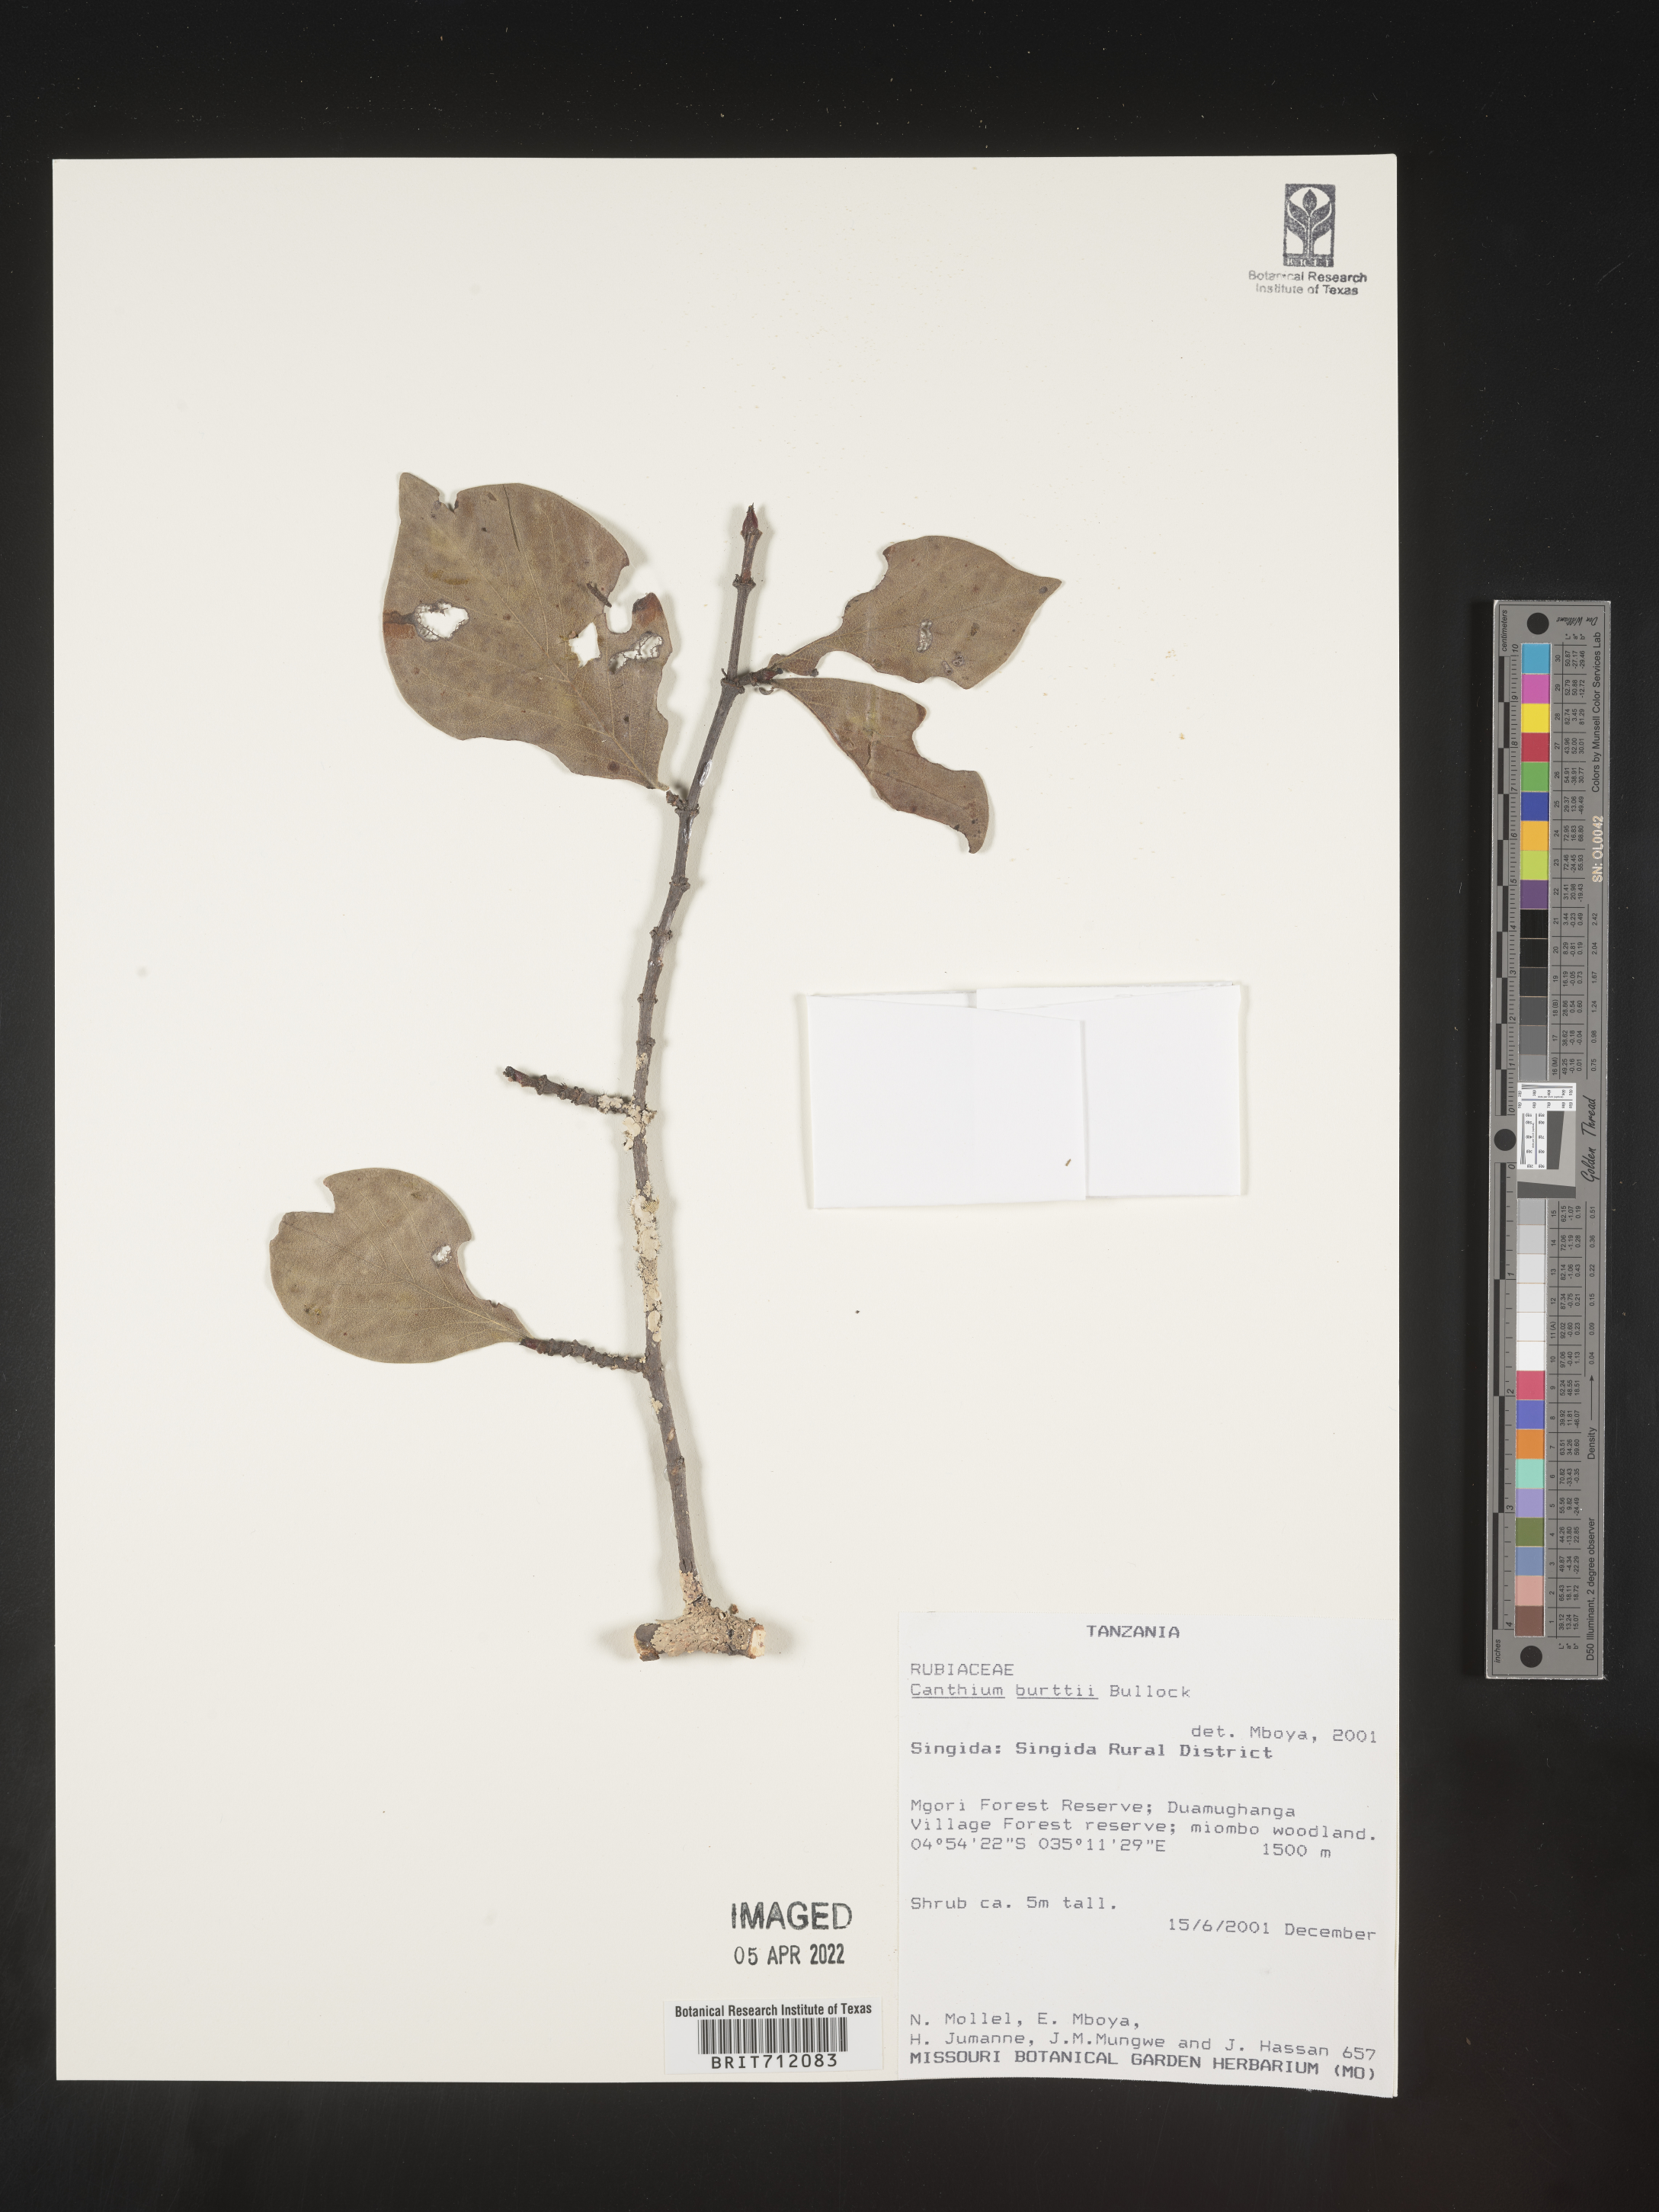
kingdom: Plantae
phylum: Tracheophyta
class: Magnoliopsida
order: Gentianales
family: Rubiaceae
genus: Canthium
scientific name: Canthium
